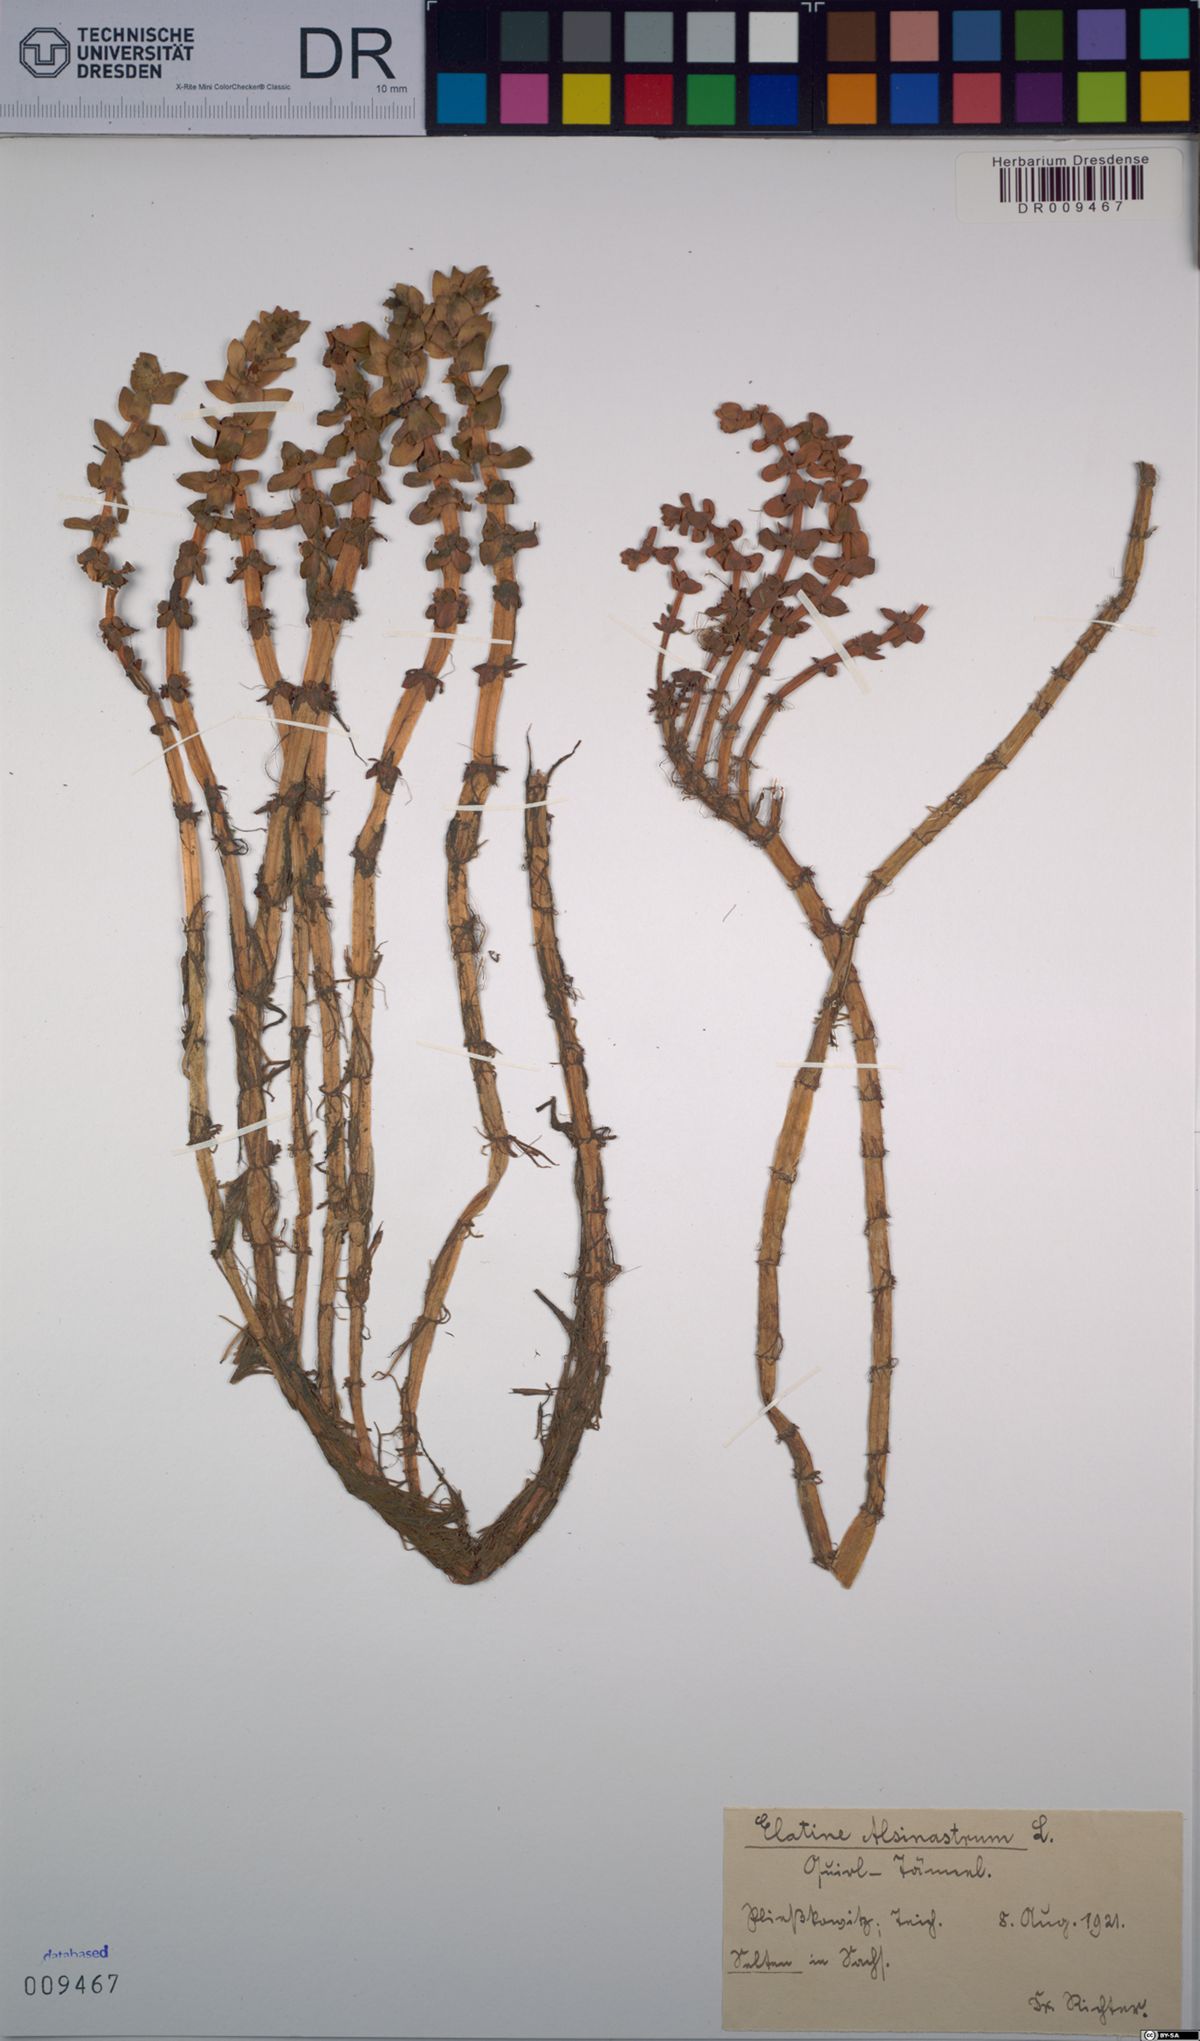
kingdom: Plantae
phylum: Tracheophyta
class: Magnoliopsida
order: Malpighiales
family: Elatinaceae
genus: Elatine
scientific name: Elatine alsinastrum
